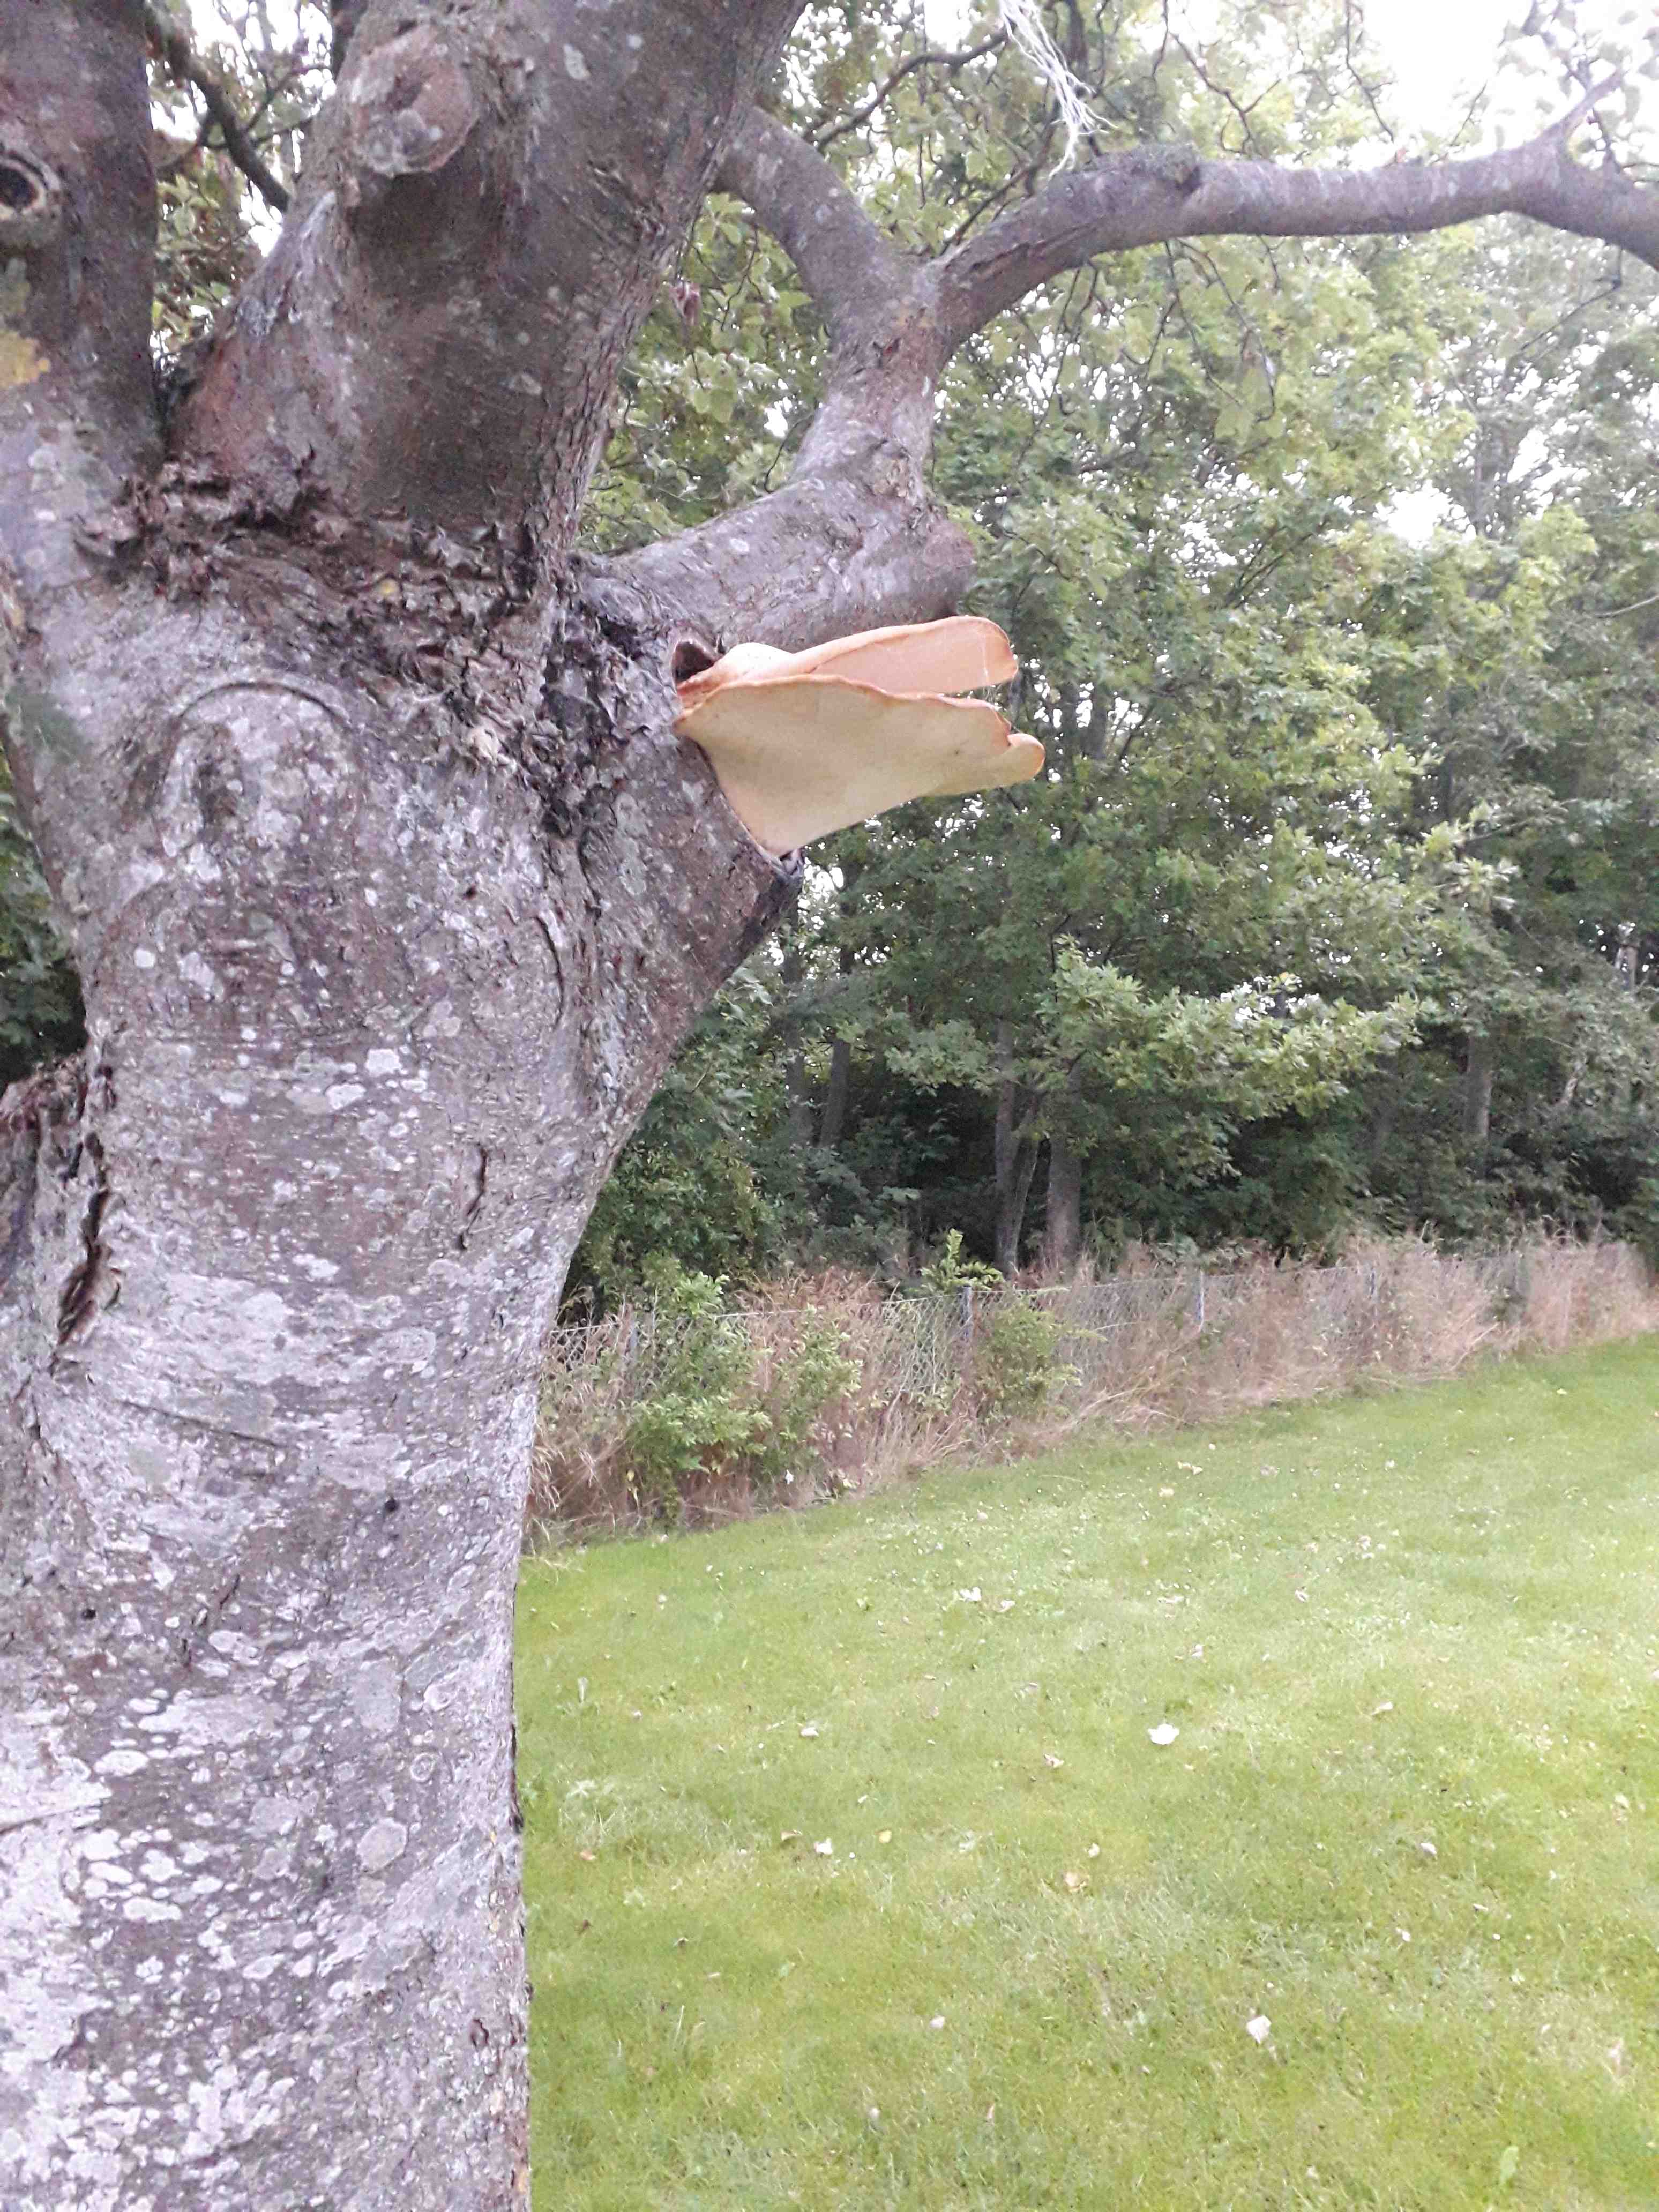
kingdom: Fungi
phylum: Basidiomycota
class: Agaricomycetes
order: Polyporales
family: Polyporaceae
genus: Cerioporus
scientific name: Cerioporus squamosus
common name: skællet stilkporesvamp
